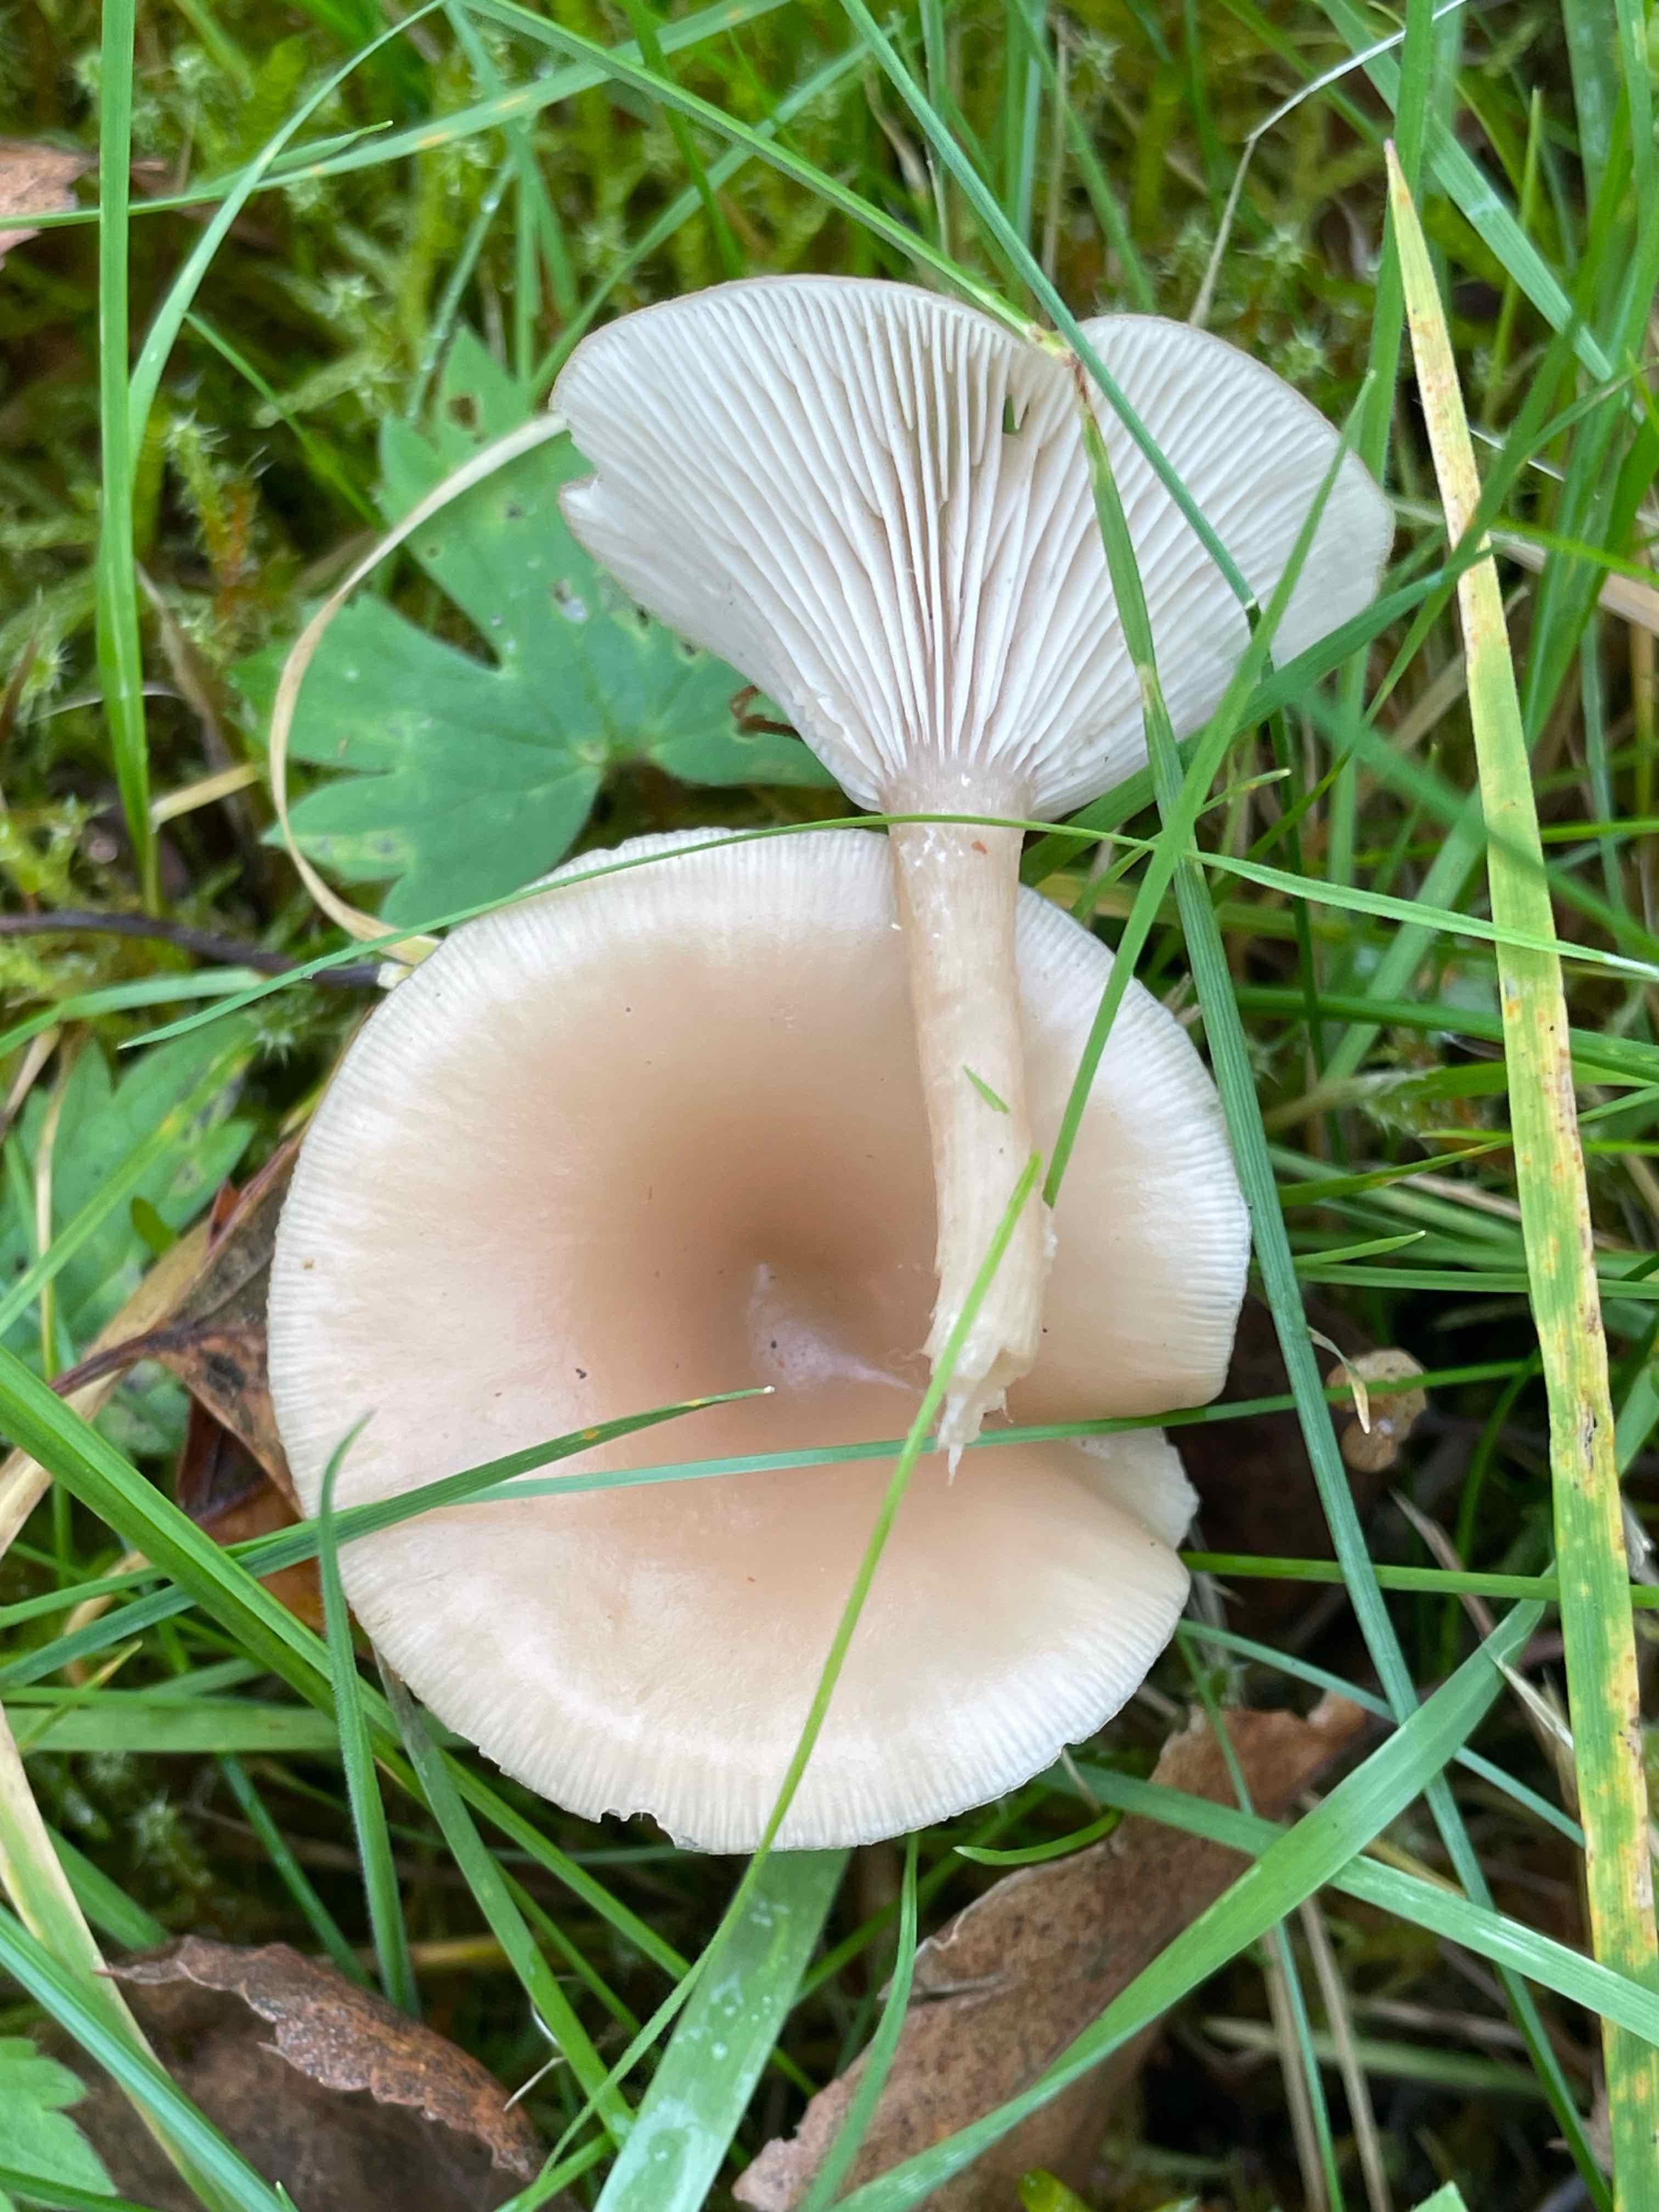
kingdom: Fungi
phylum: Basidiomycota
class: Agaricomycetes
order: Agaricales
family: Tricholomataceae
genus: Clitocybe
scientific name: Clitocybe fragrans
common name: vellugtende tragthat
